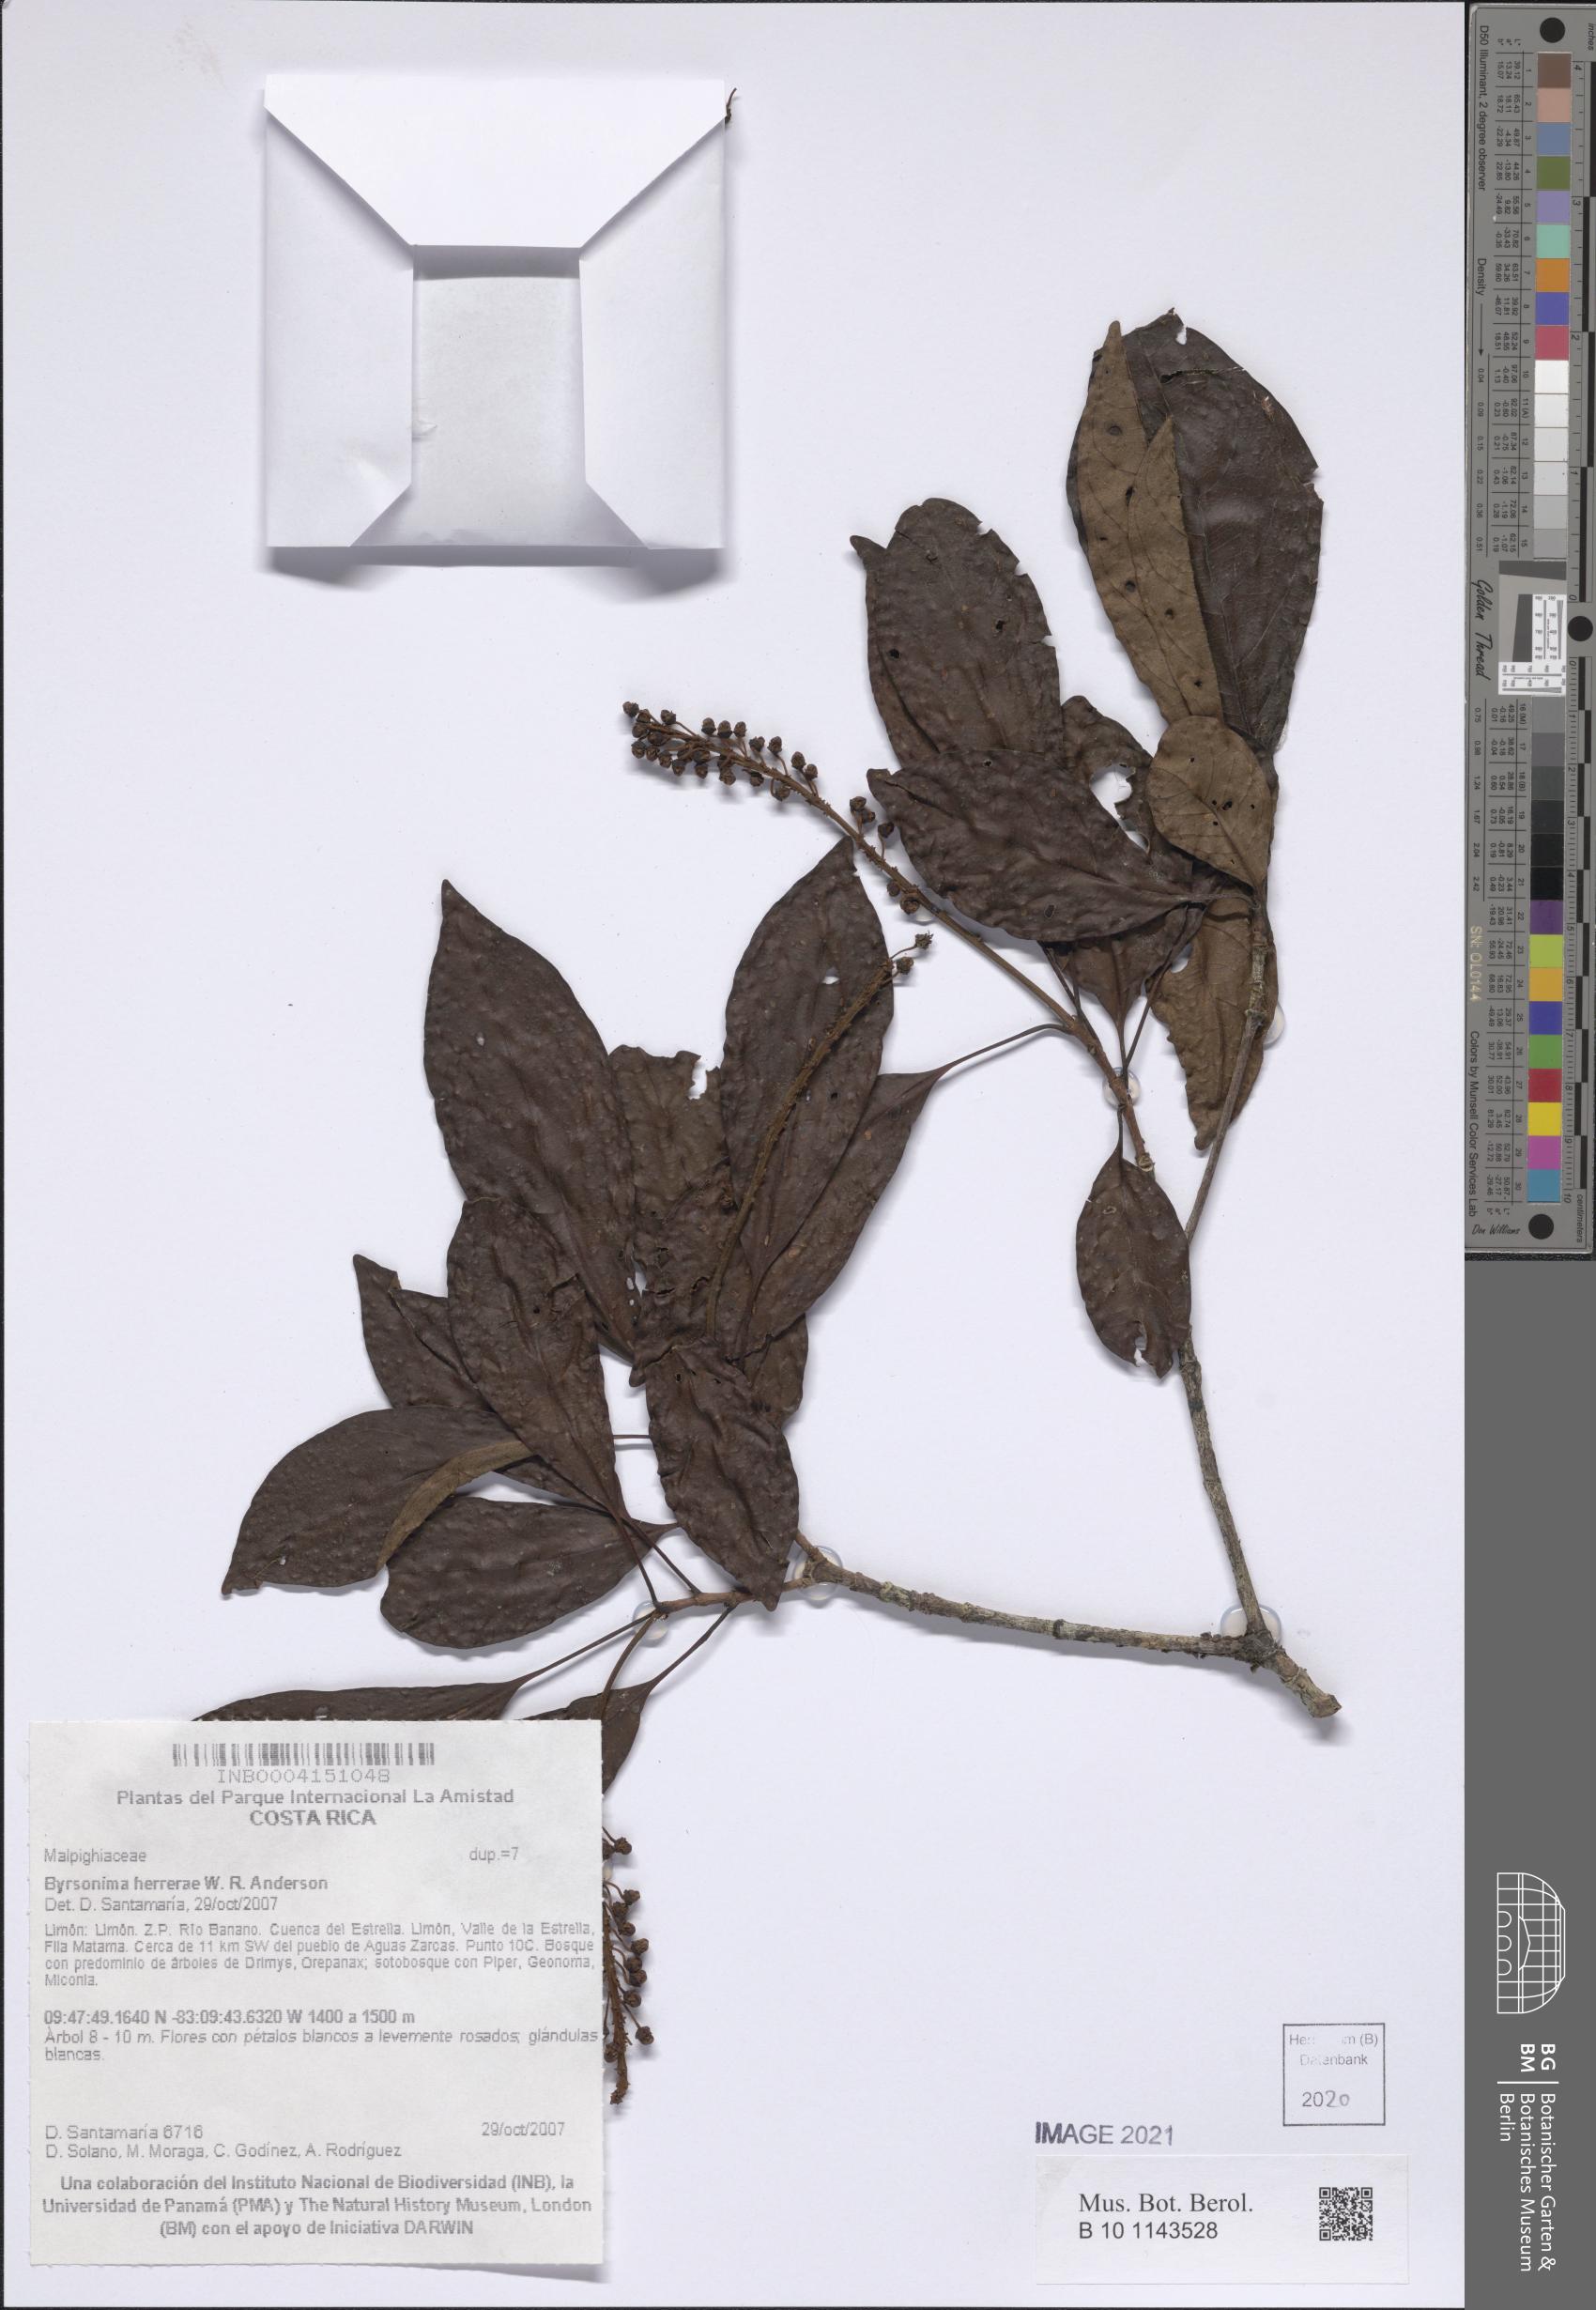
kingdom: Plantae
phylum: Tracheophyta
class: Magnoliopsida
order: Malpighiales
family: Malpighiaceae
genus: Byrsonima
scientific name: Byrsonima herrerae
